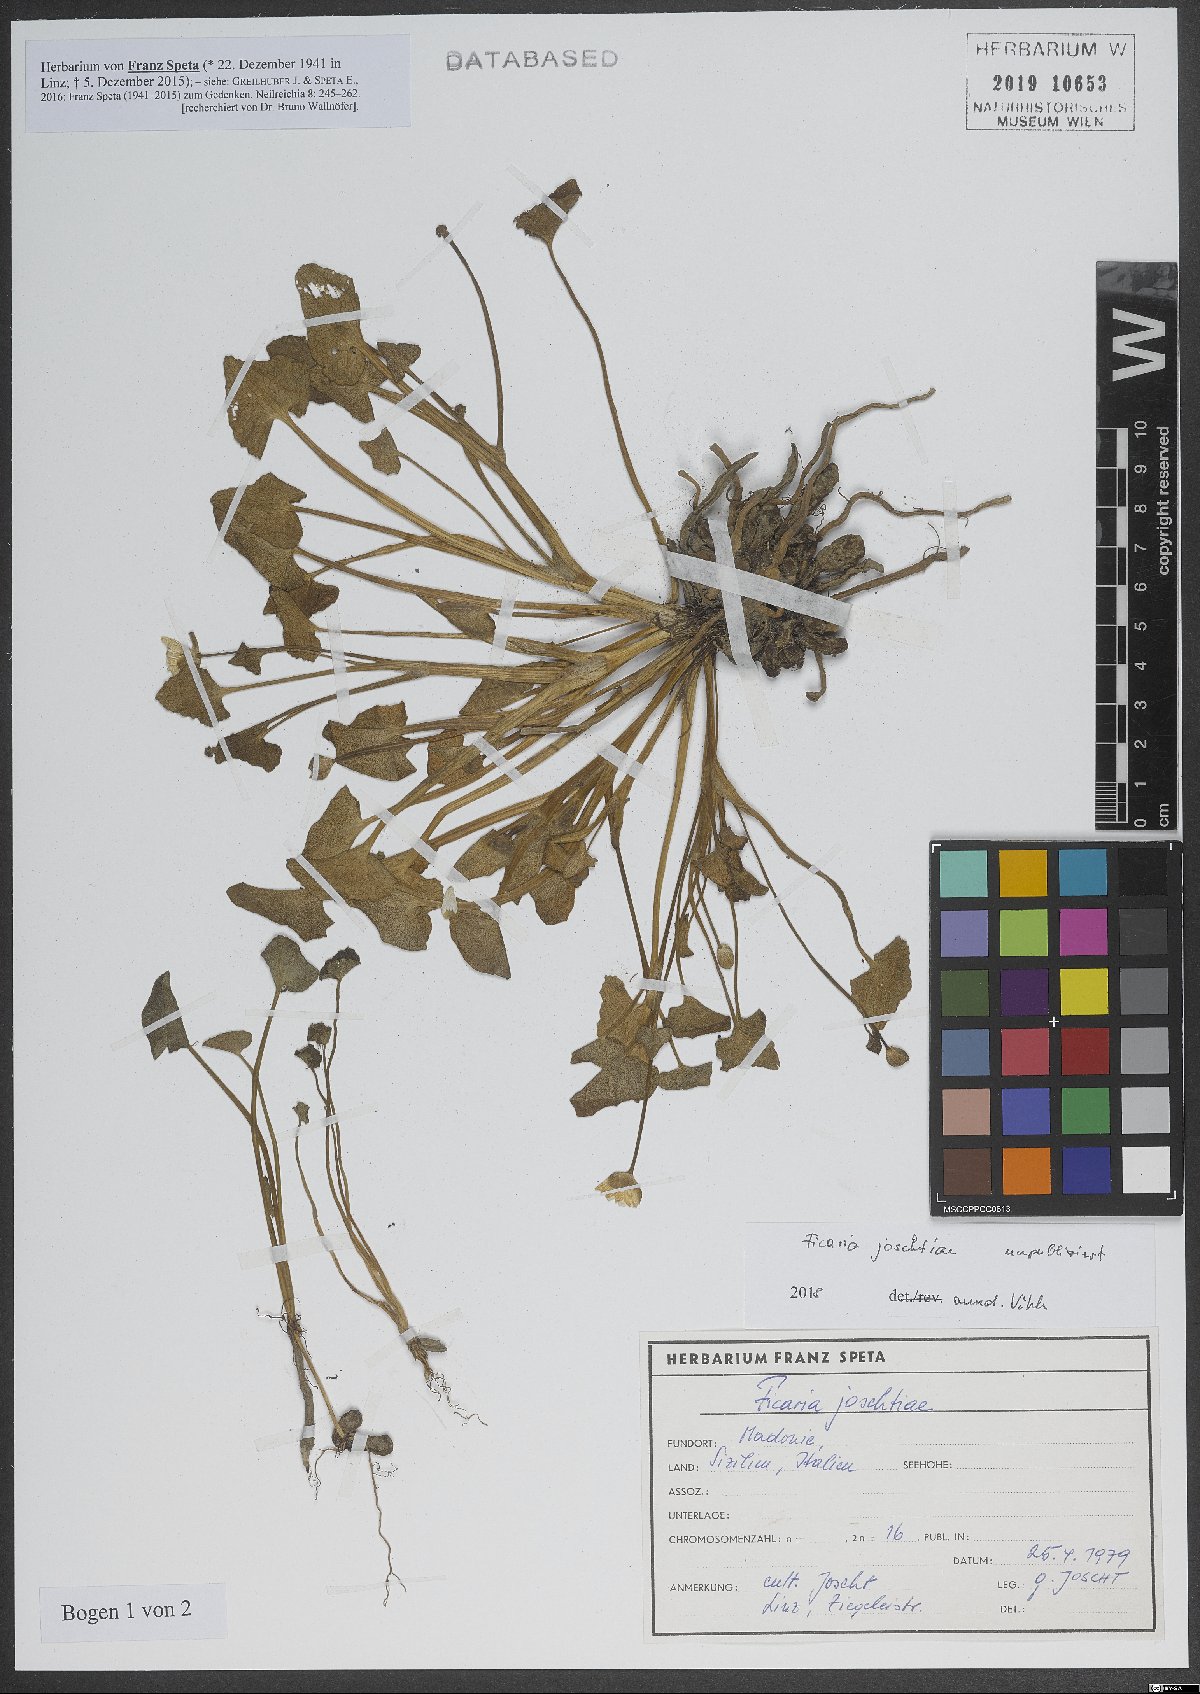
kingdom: Plantae
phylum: Tracheophyta
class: Magnoliopsida
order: Ranunculales
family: Ranunculaceae
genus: Ficaria
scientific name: Ficaria
